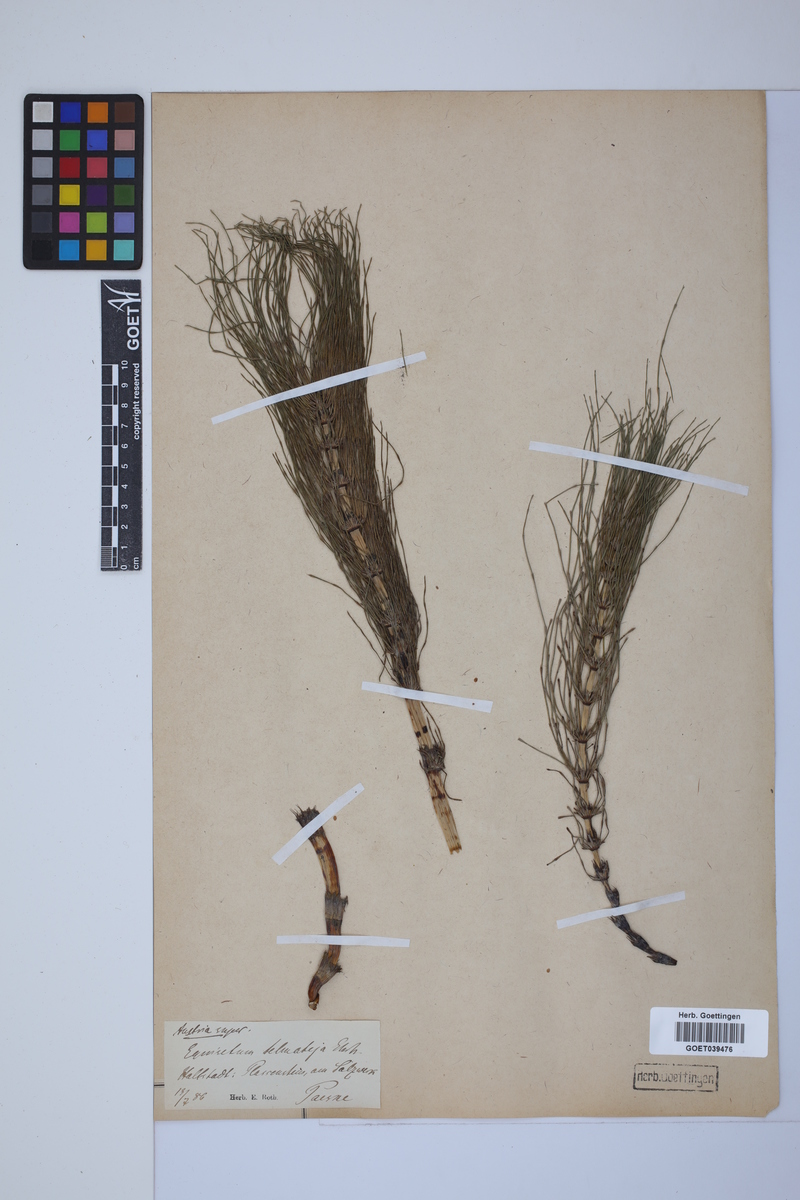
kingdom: Plantae
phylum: Tracheophyta
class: Polypodiopsida
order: Equisetales
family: Equisetaceae
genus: Equisetum
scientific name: Equisetum telmateia
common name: Great horsetail
